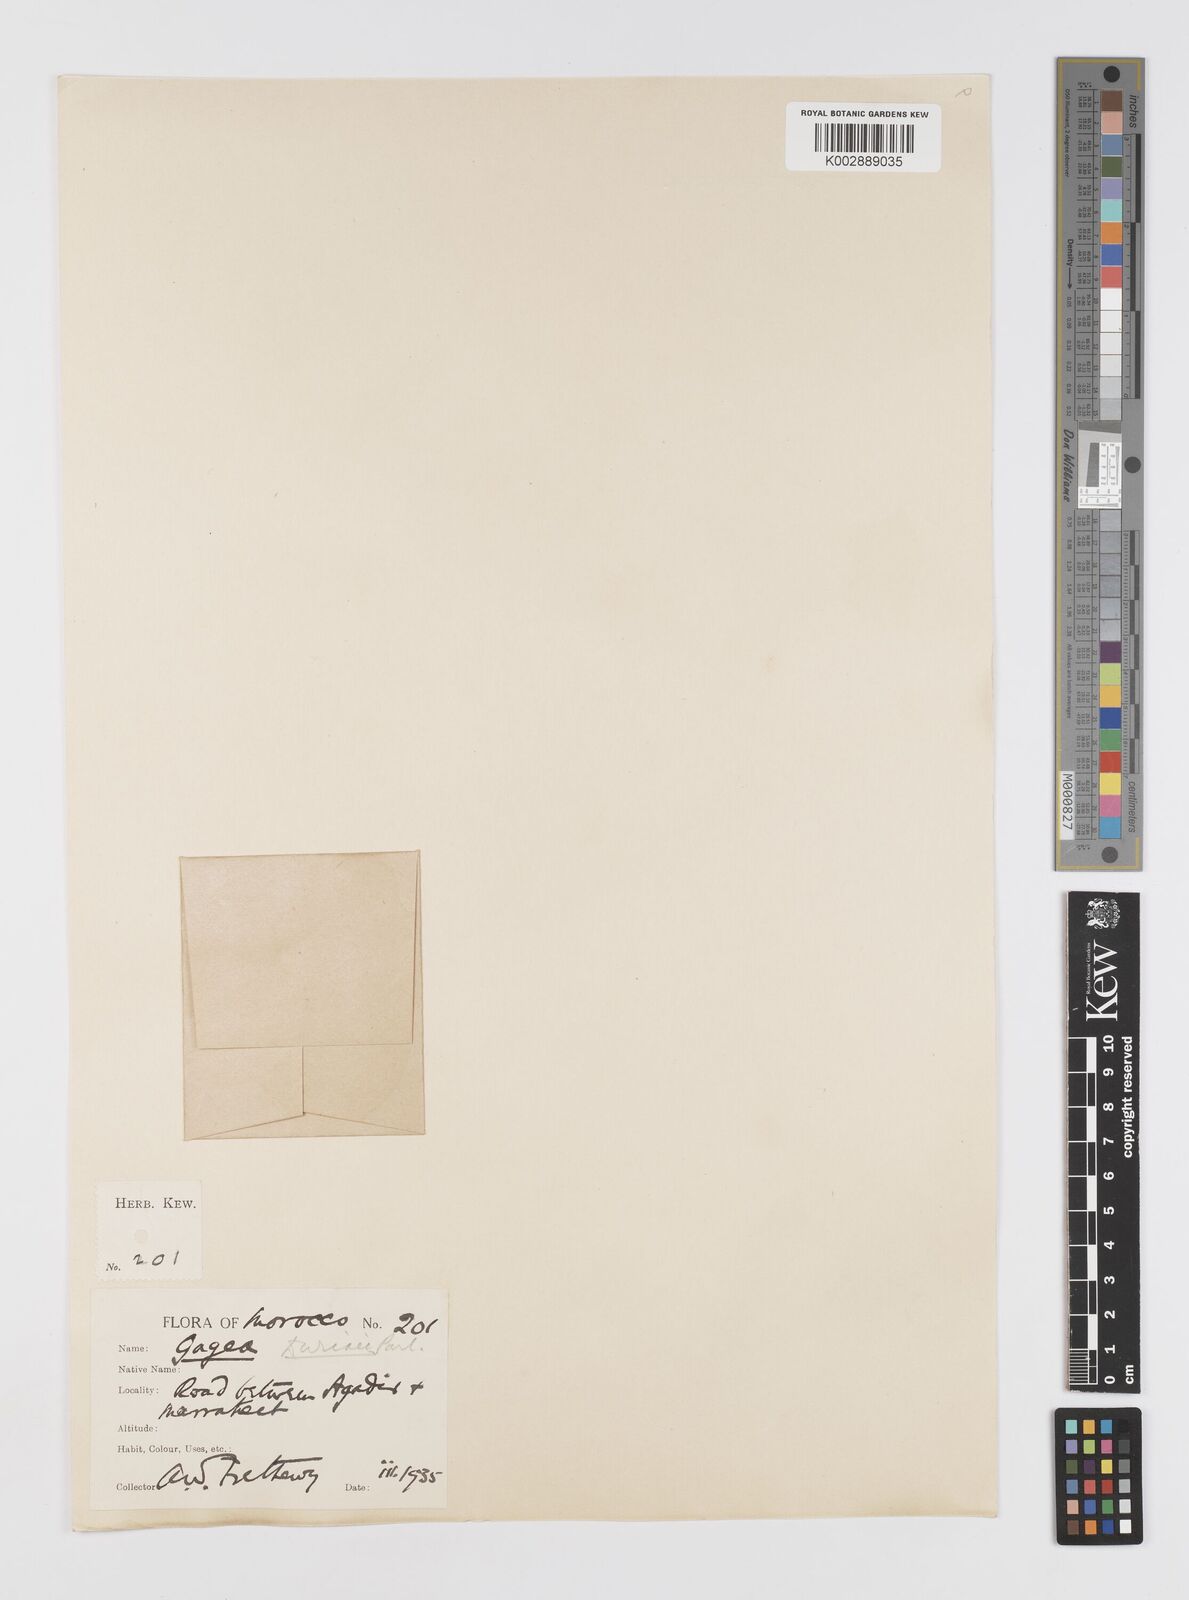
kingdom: Plantae
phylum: Tracheophyta
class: Liliopsida
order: Liliales
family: Liliaceae
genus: Gagea
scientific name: Gagea durieui
